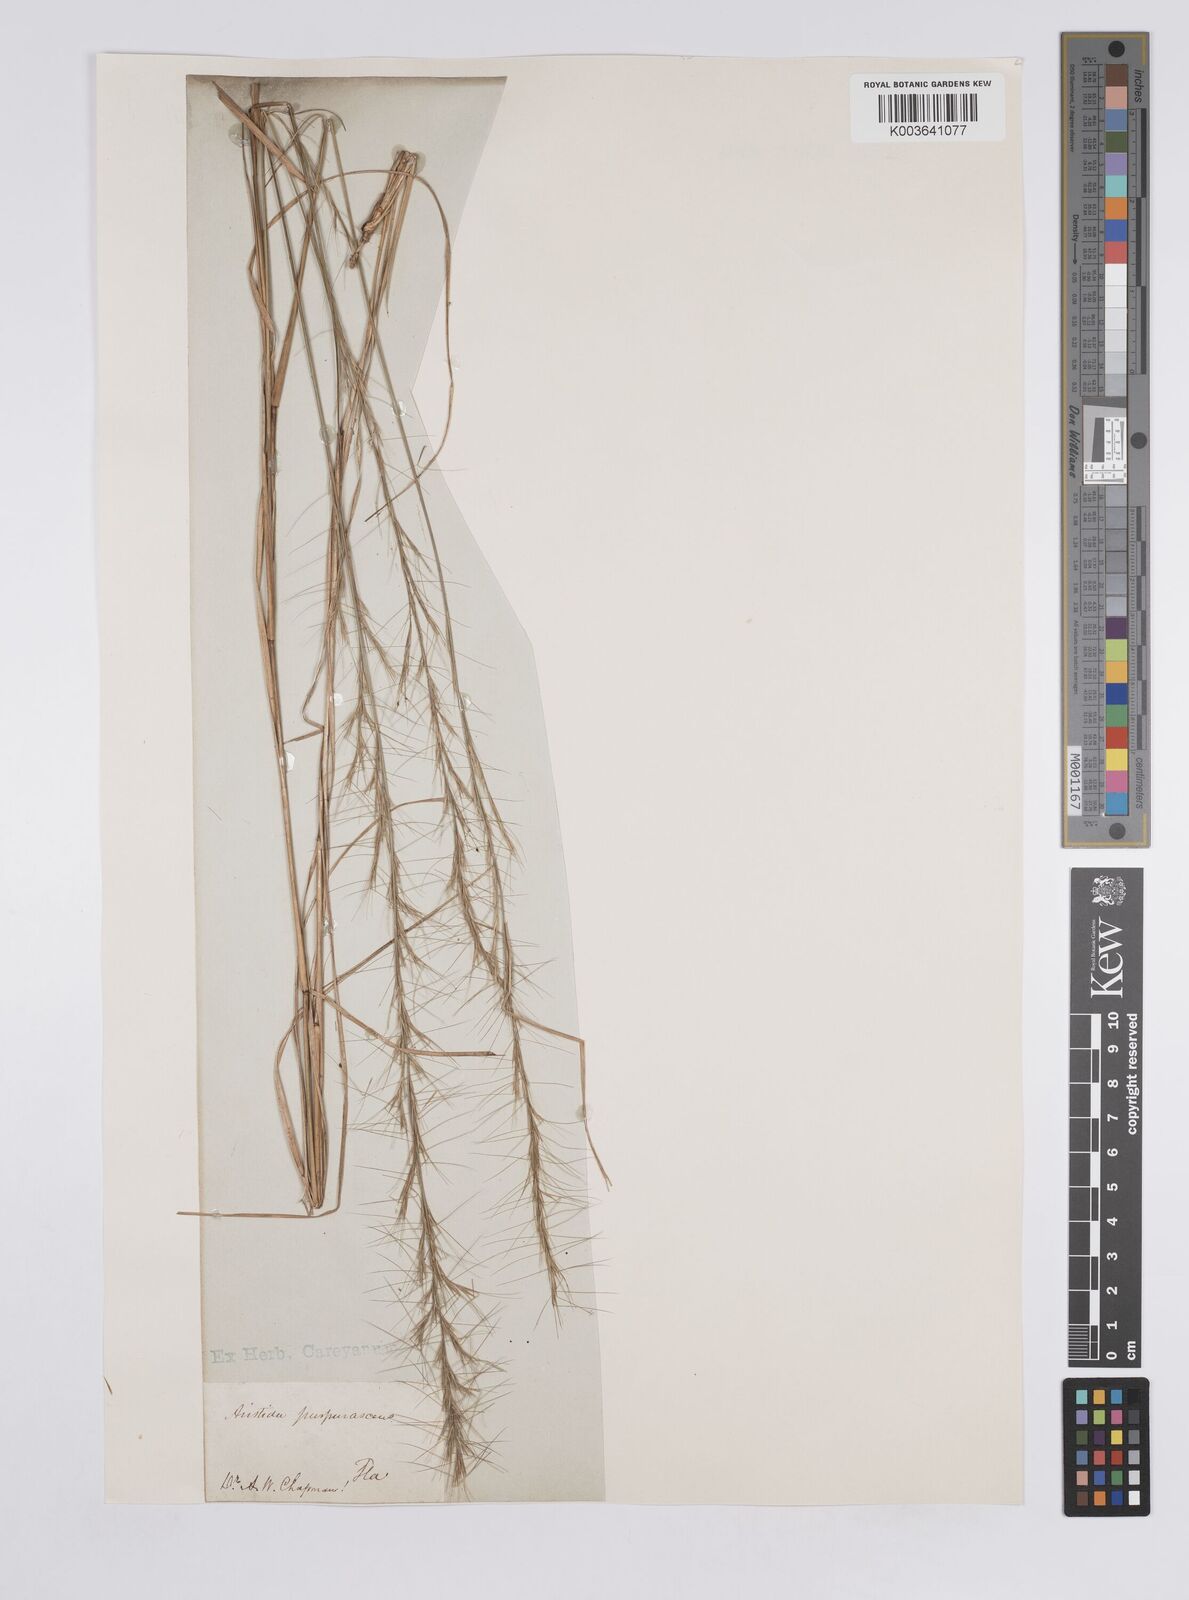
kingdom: Plantae
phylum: Tracheophyta
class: Liliopsida
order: Poales
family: Poaceae
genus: Aristida
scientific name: Aristida purpurascens
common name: Arrow-feather
